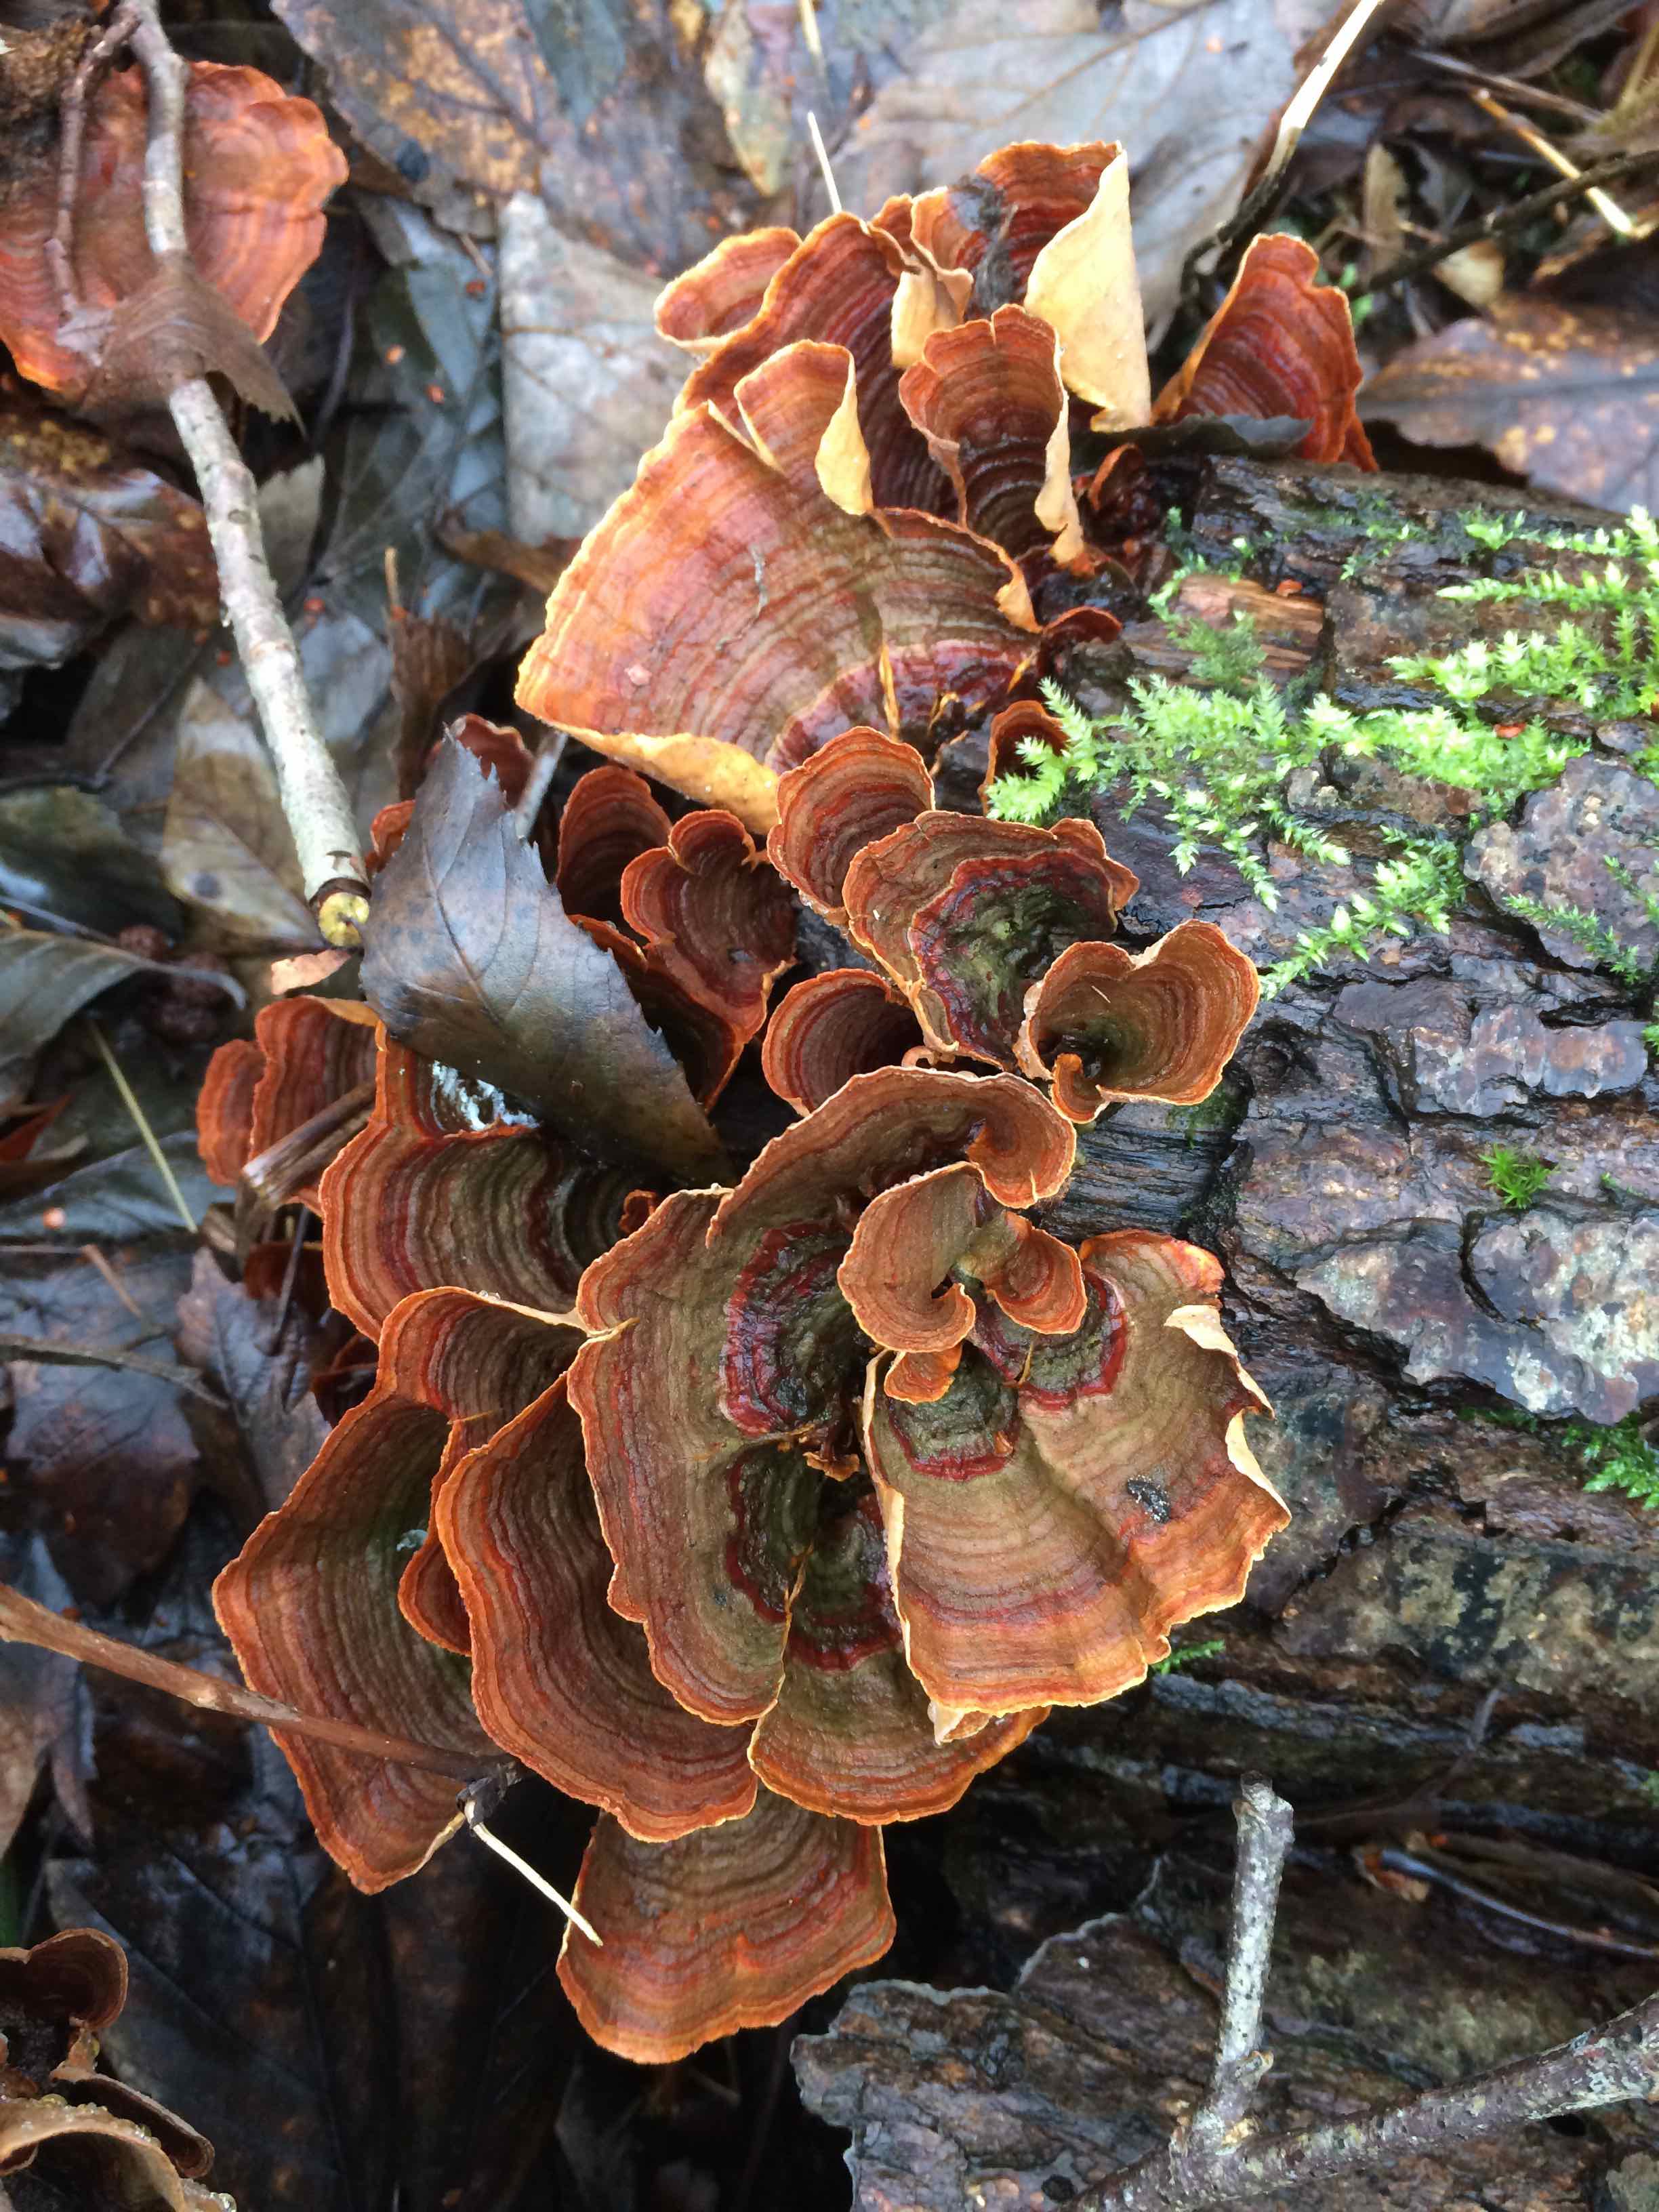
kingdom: Fungi
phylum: Basidiomycota
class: Agaricomycetes
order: Russulales
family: Stereaceae
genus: Stereum
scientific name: Stereum subtomentosum
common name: smuk lædersvamp
